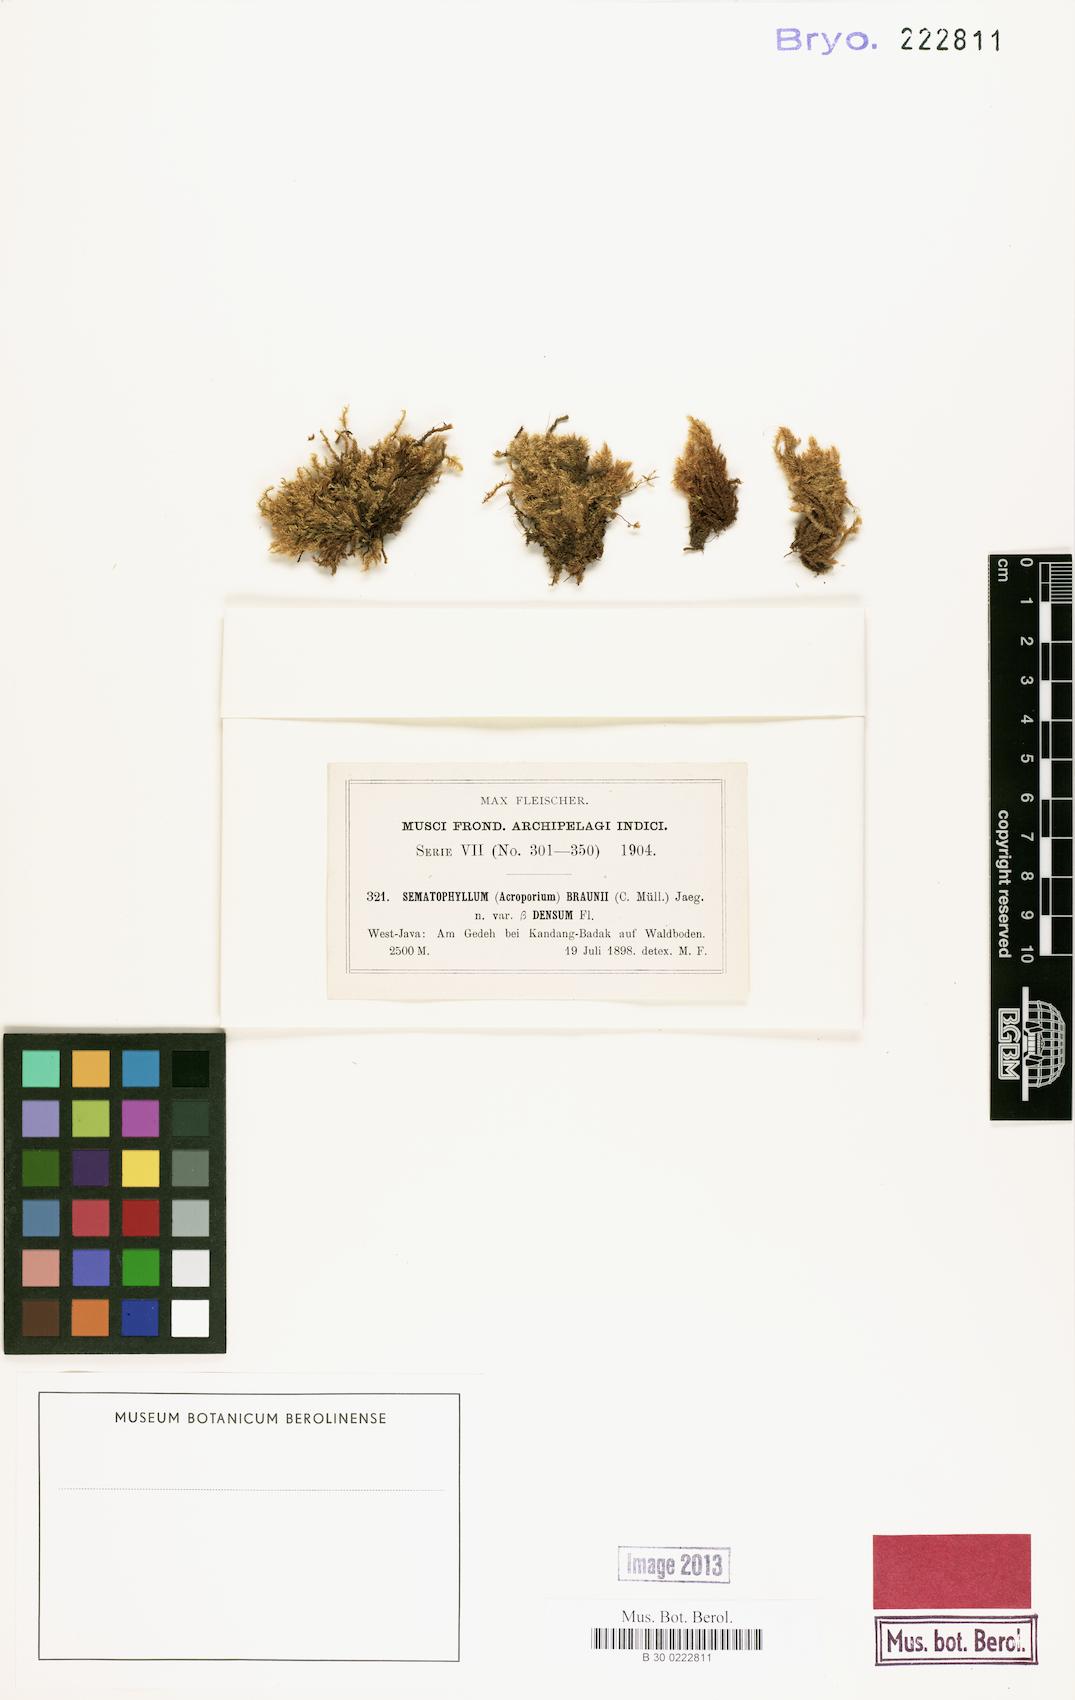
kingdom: Plantae
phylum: Bryophyta
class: Bryopsida
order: Hypnales
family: Sematophyllaceae
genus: Acroporium
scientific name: Acroporium rufum
